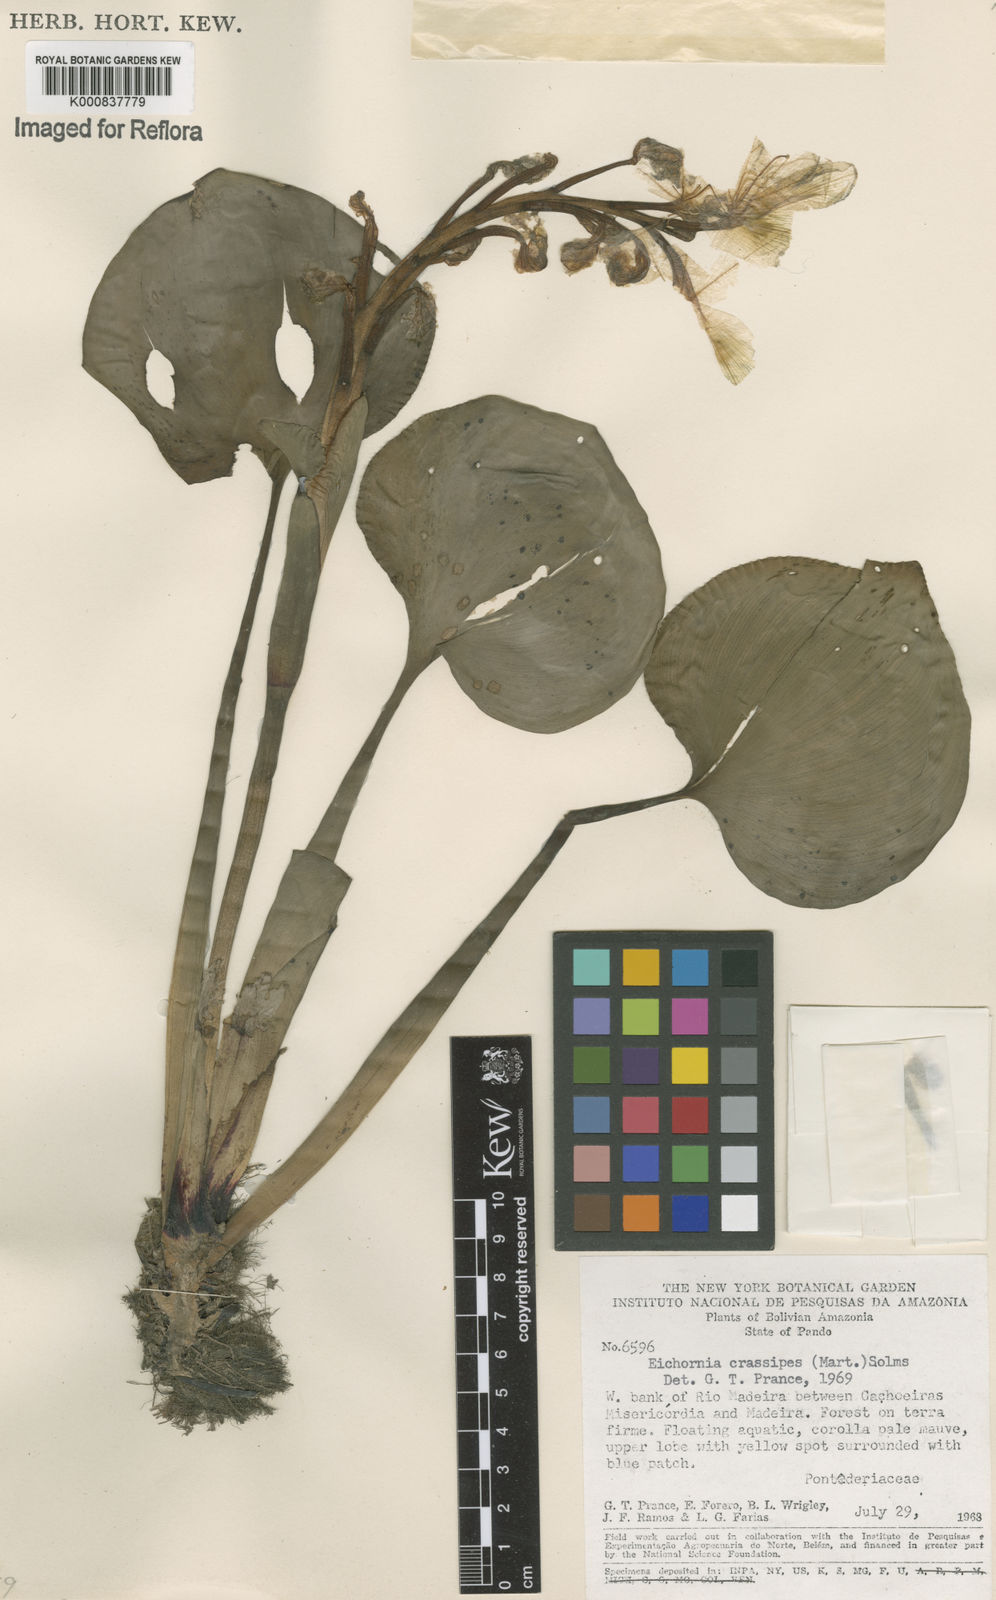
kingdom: Plantae
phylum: Tracheophyta
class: Liliopsida
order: Commelinales
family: Pontederiaceae
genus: Pontederia
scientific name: Pontederia crassipes
